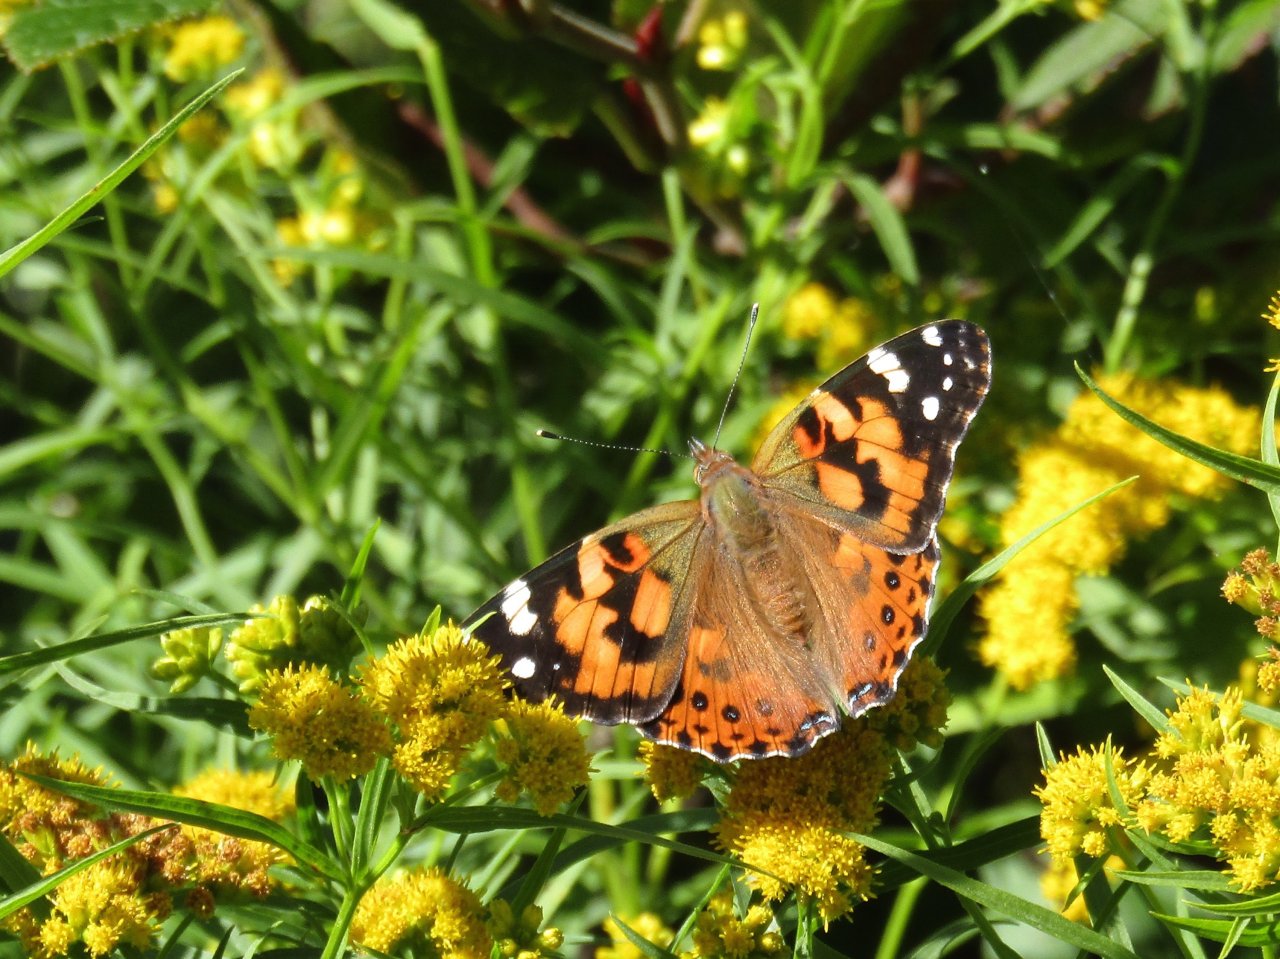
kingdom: Animalia
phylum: Arthropoda
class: Insecta
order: Lepidoptera
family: Nymphalidae
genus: Vanessa
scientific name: Vanessa cardui
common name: Painted Lady
